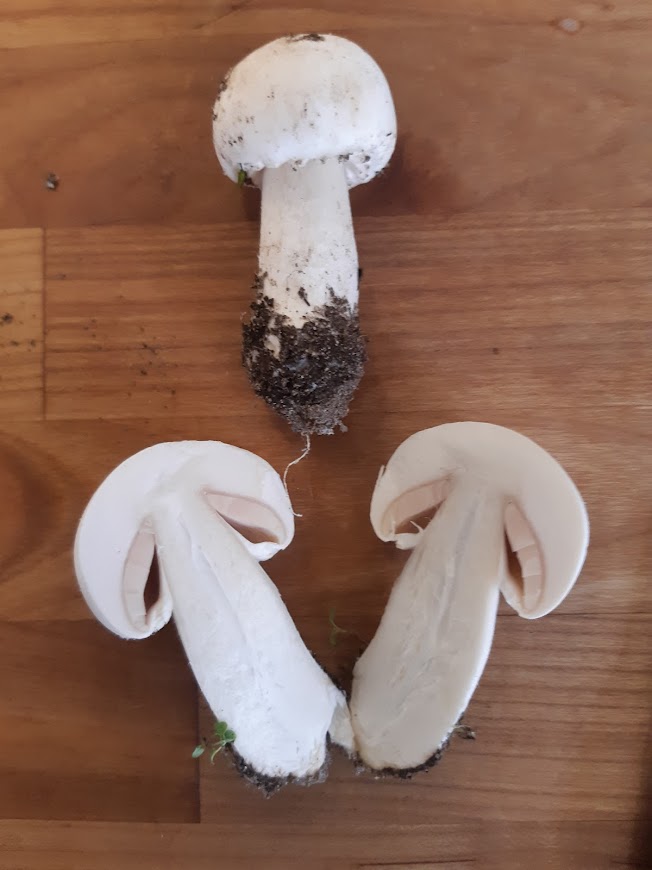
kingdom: Fungi
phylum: Basidiomycota
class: Agaricomycetes
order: Agaricales
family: Agaricaceae
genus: Agaricus
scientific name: Agaricus arvensis
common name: ager-champignon
